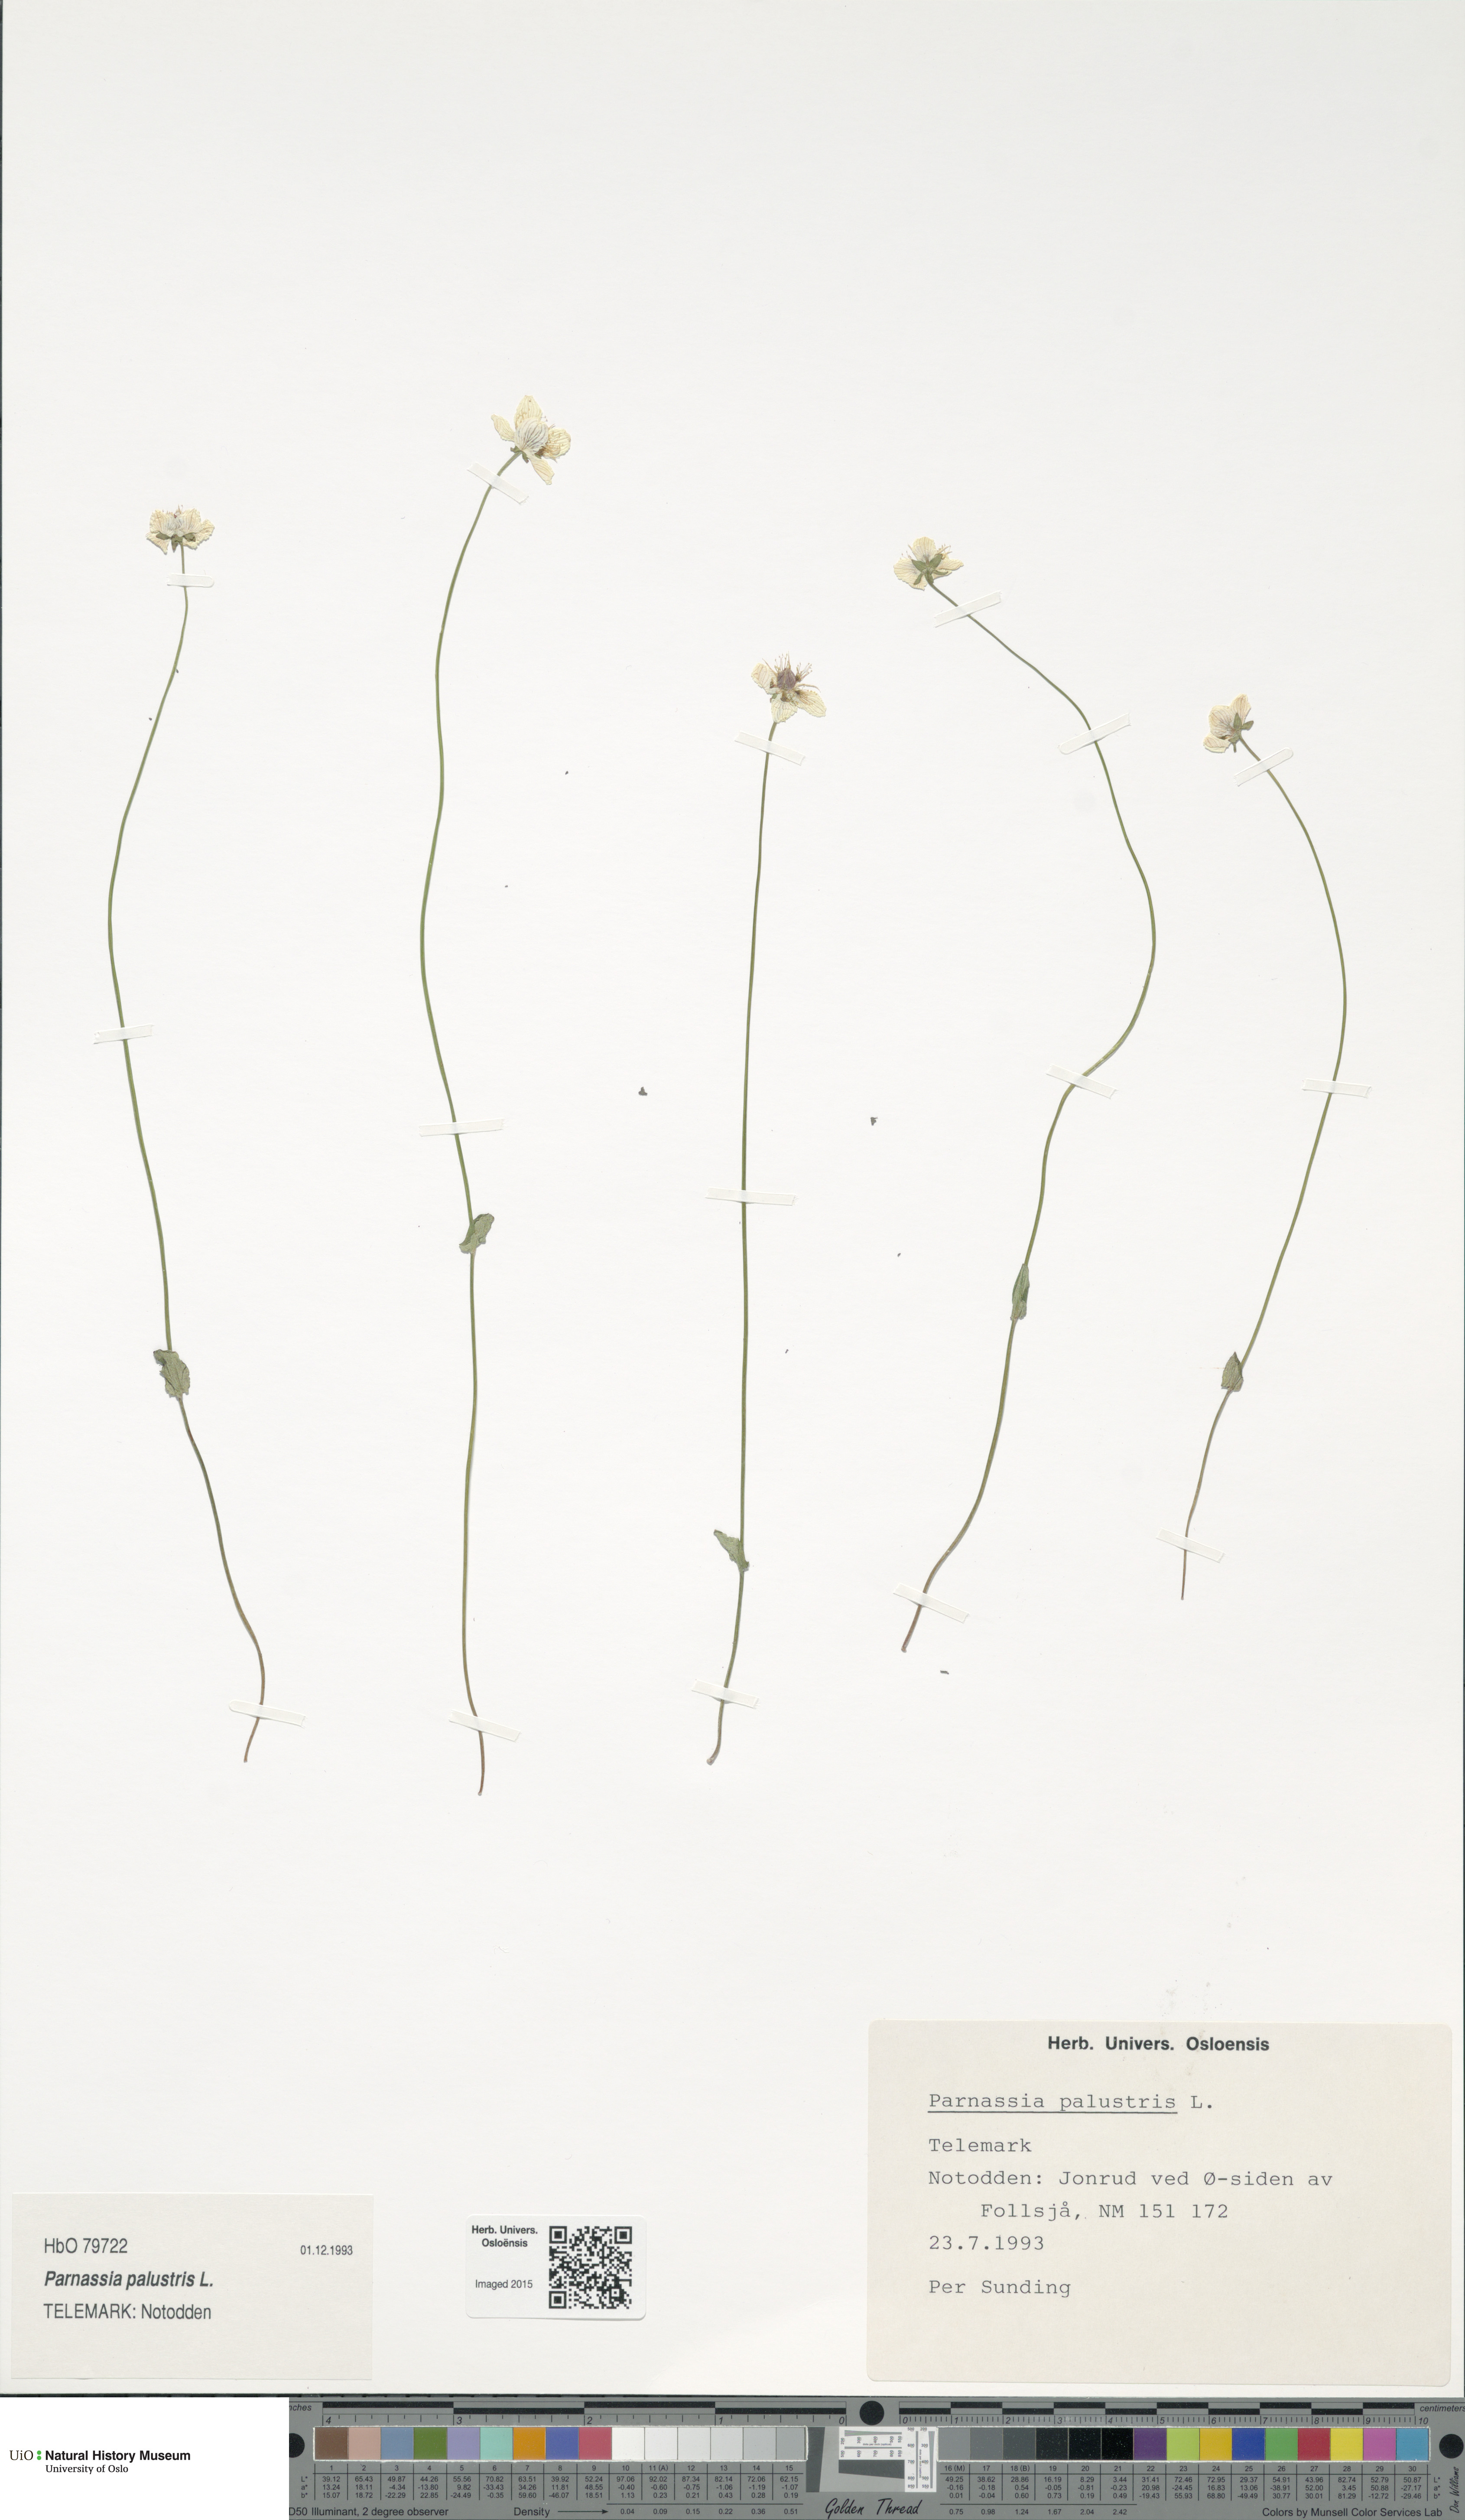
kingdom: Plantae
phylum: Tracheophyta
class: Magnoliopsida
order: Celastrales
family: Parnassiaceae
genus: Parnassia
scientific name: Parnassia palustris
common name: Grass-of-parnassus
